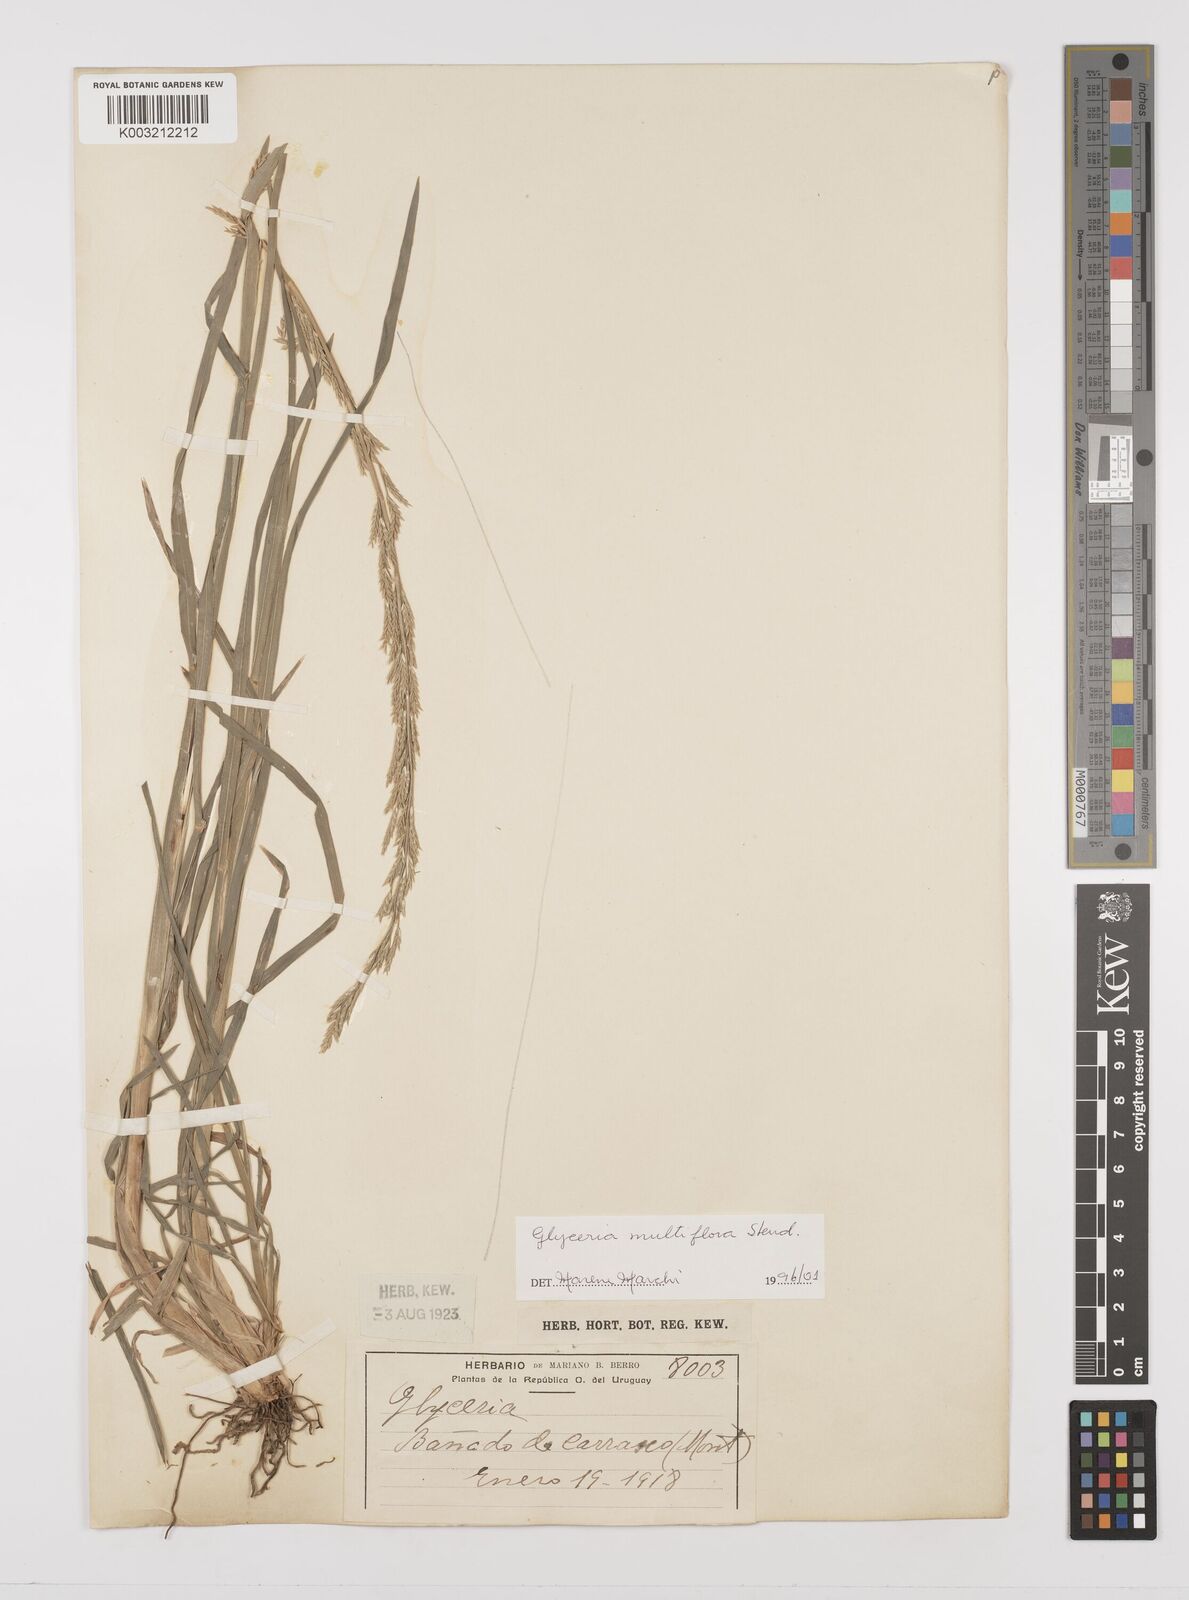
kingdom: Plantae
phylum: Tracheophyta
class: Liliopsida
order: Poales
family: Poaceae
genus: Glyceria
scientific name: Glyceria multiflora
